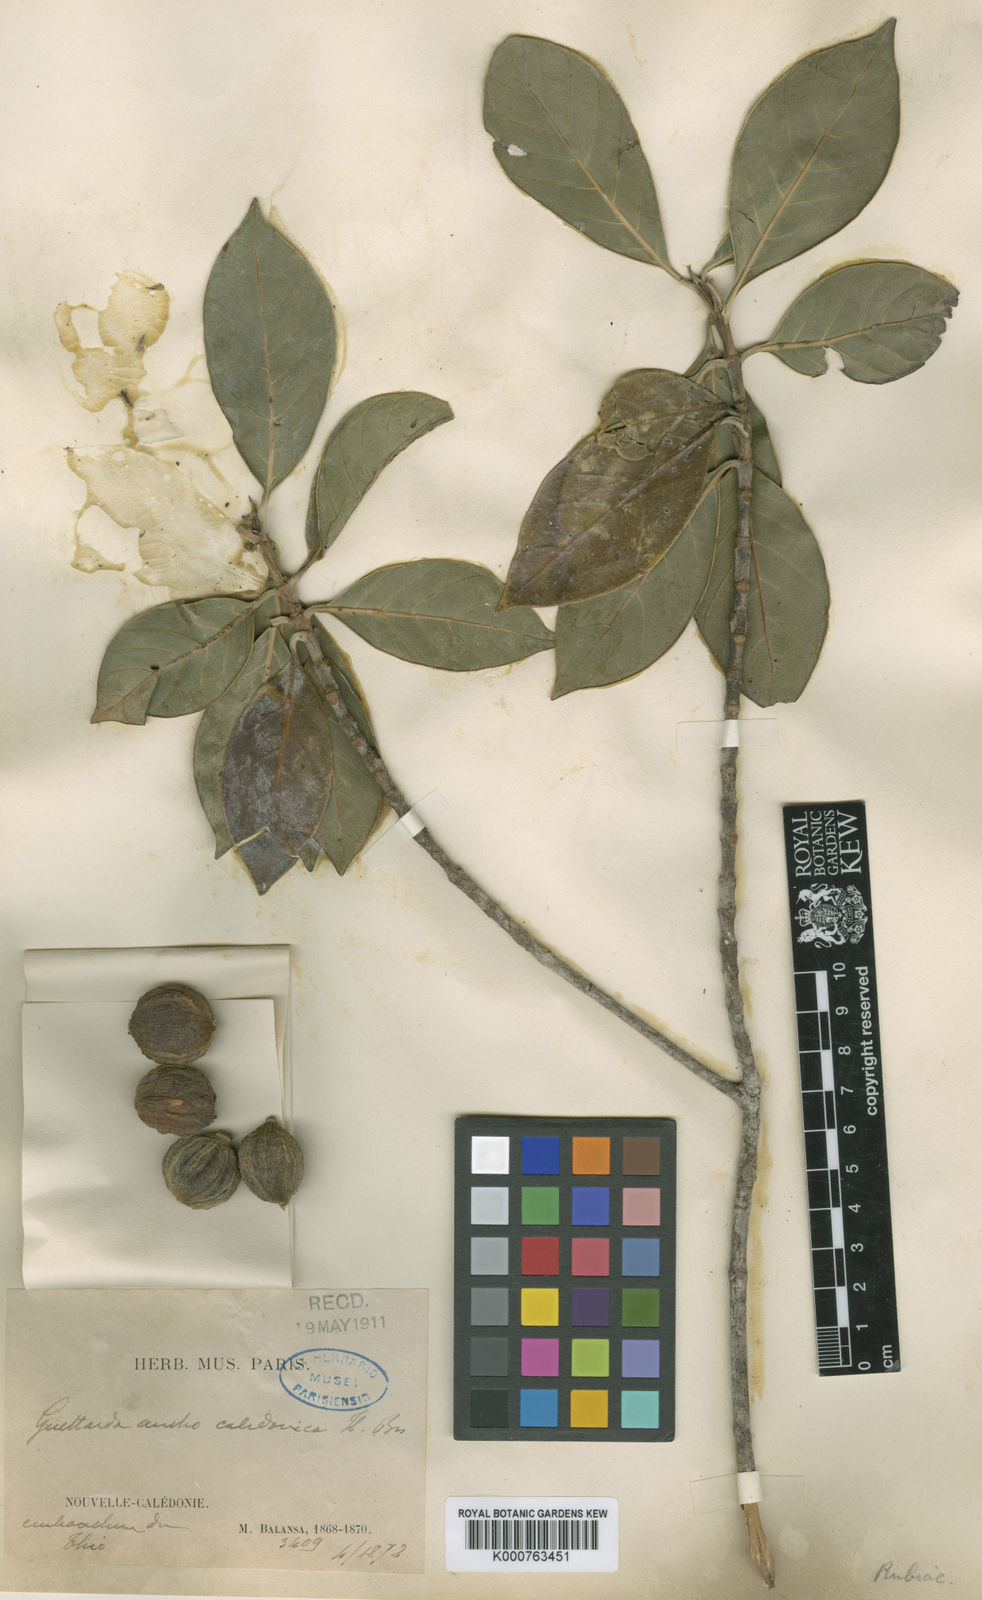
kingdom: Plantae
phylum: Tracheophyta
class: Magnoliopsida
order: Gentianales
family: Rubiaceae
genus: Guettarda
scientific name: Guettarda
